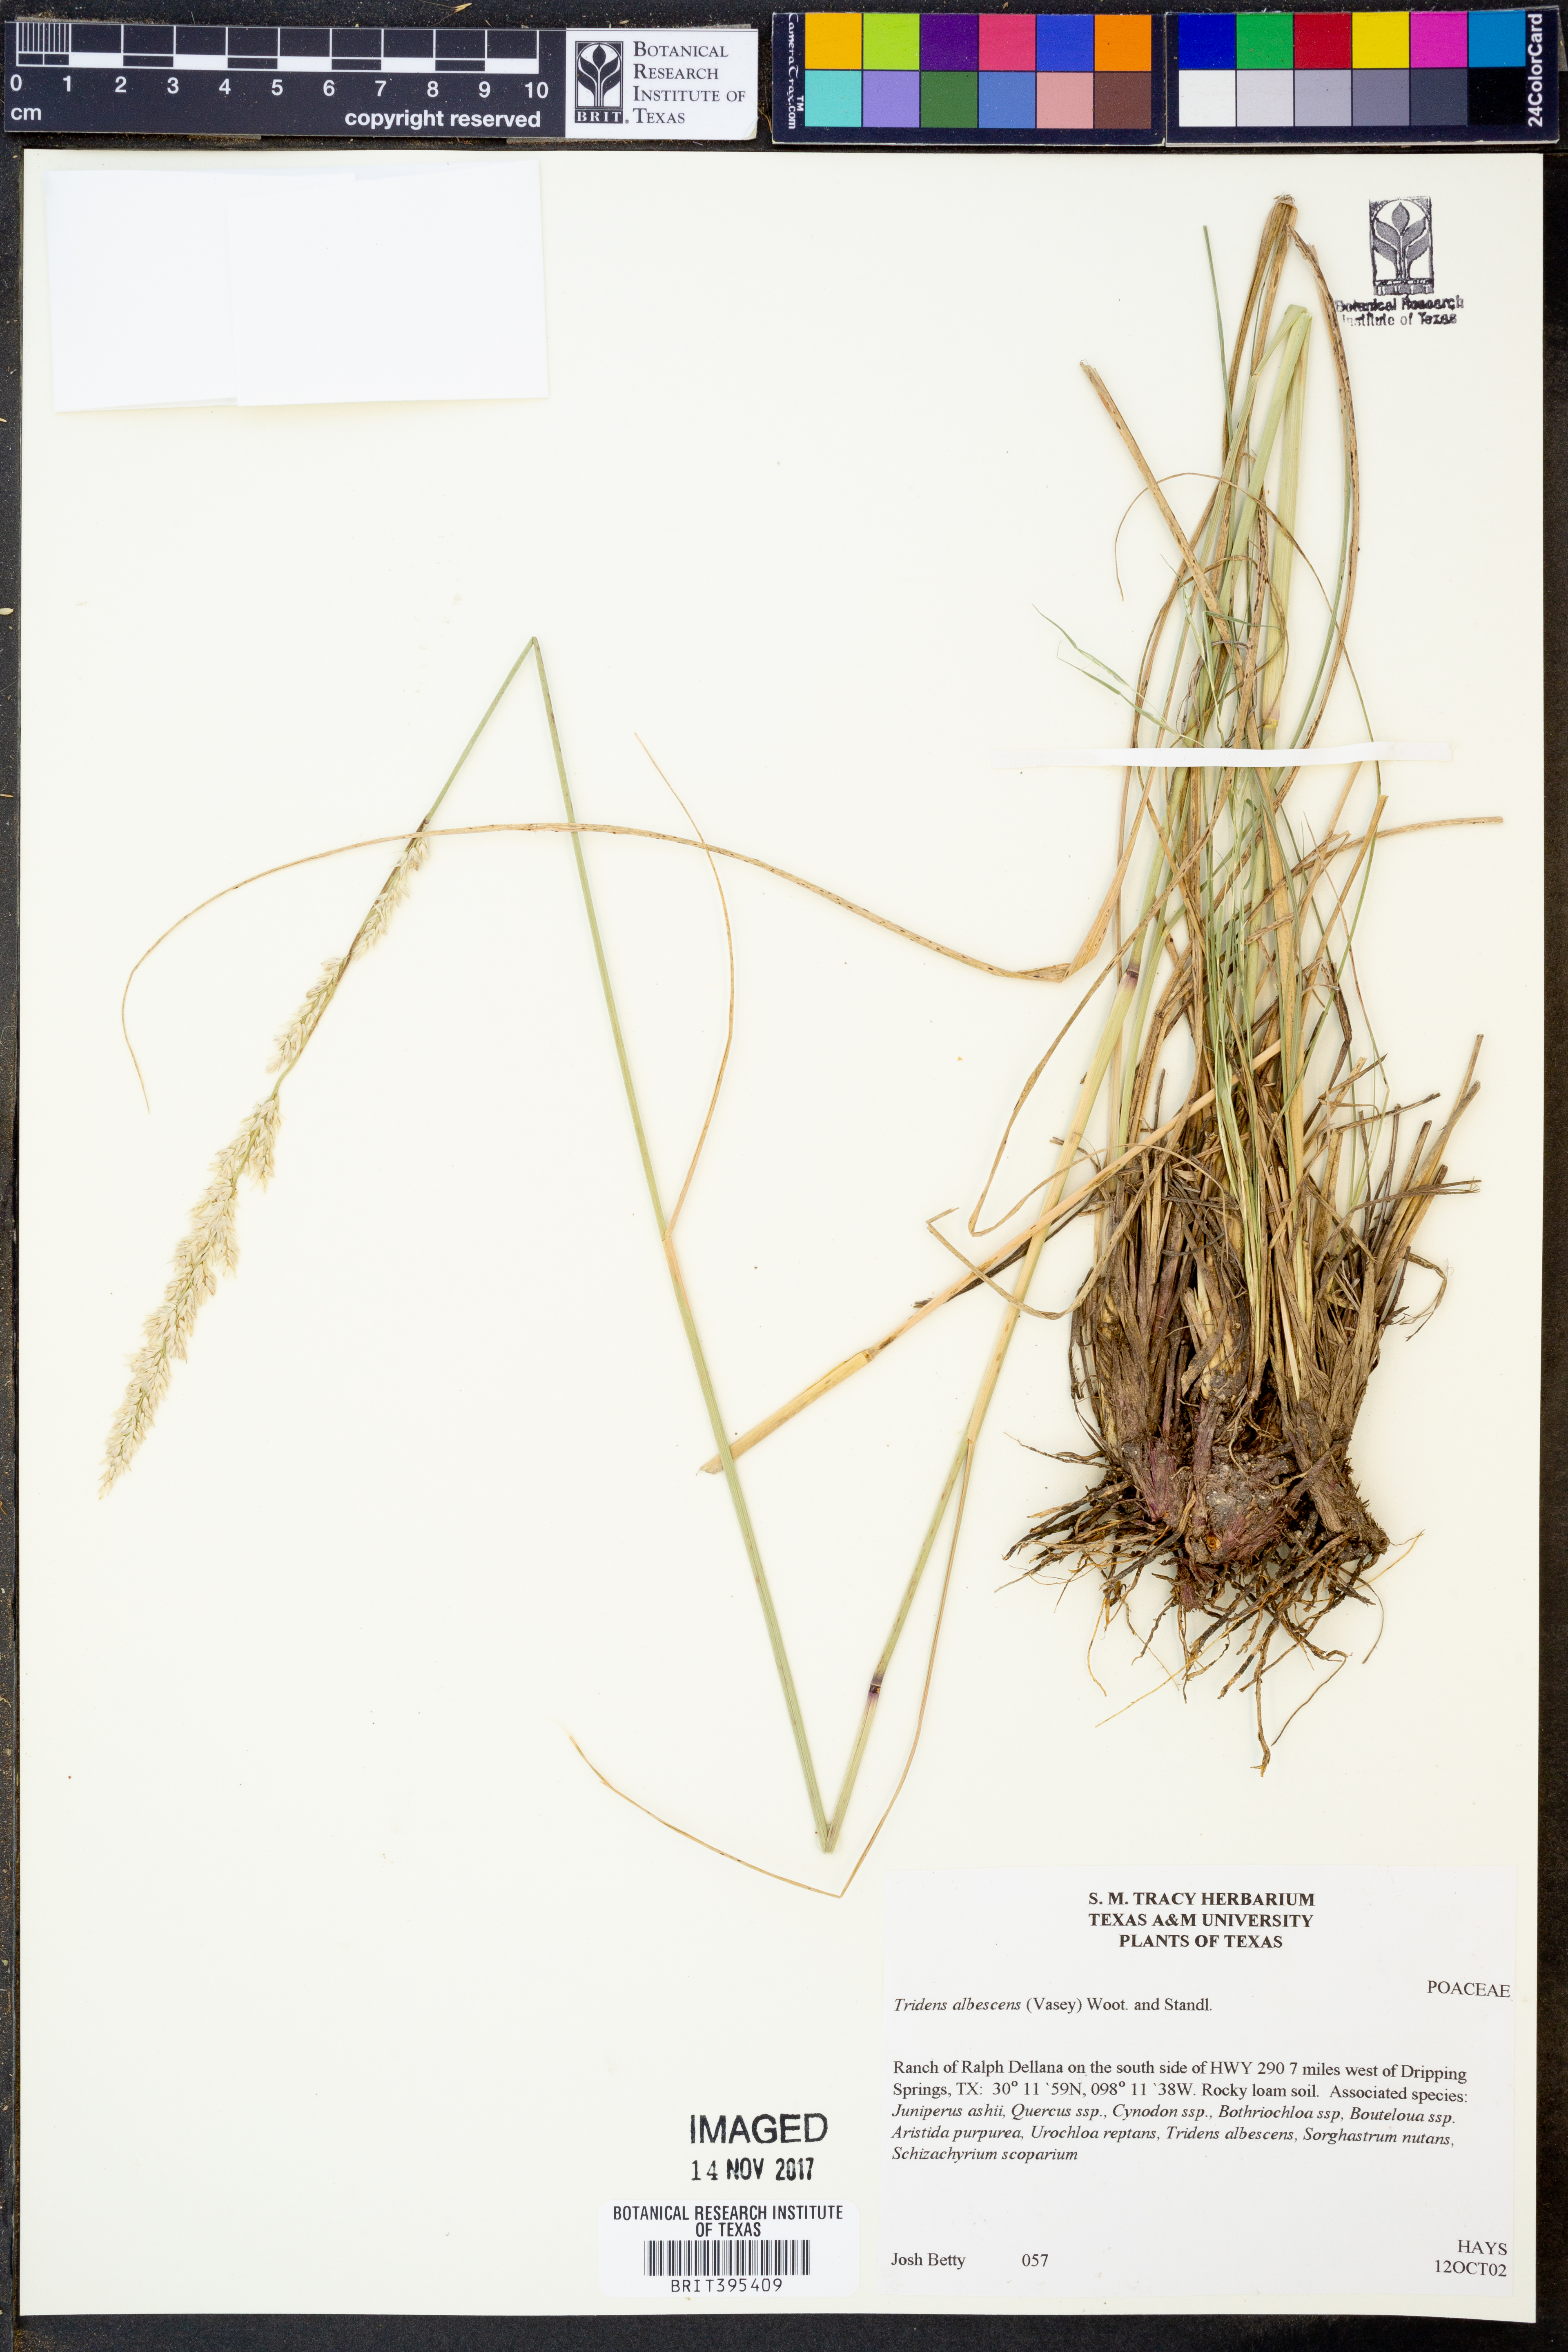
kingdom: Plantae
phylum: Tracheophyta
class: Liliopsida
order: Poales
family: Poaceae
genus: Tridens
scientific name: Tridens albescens
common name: White tridens
